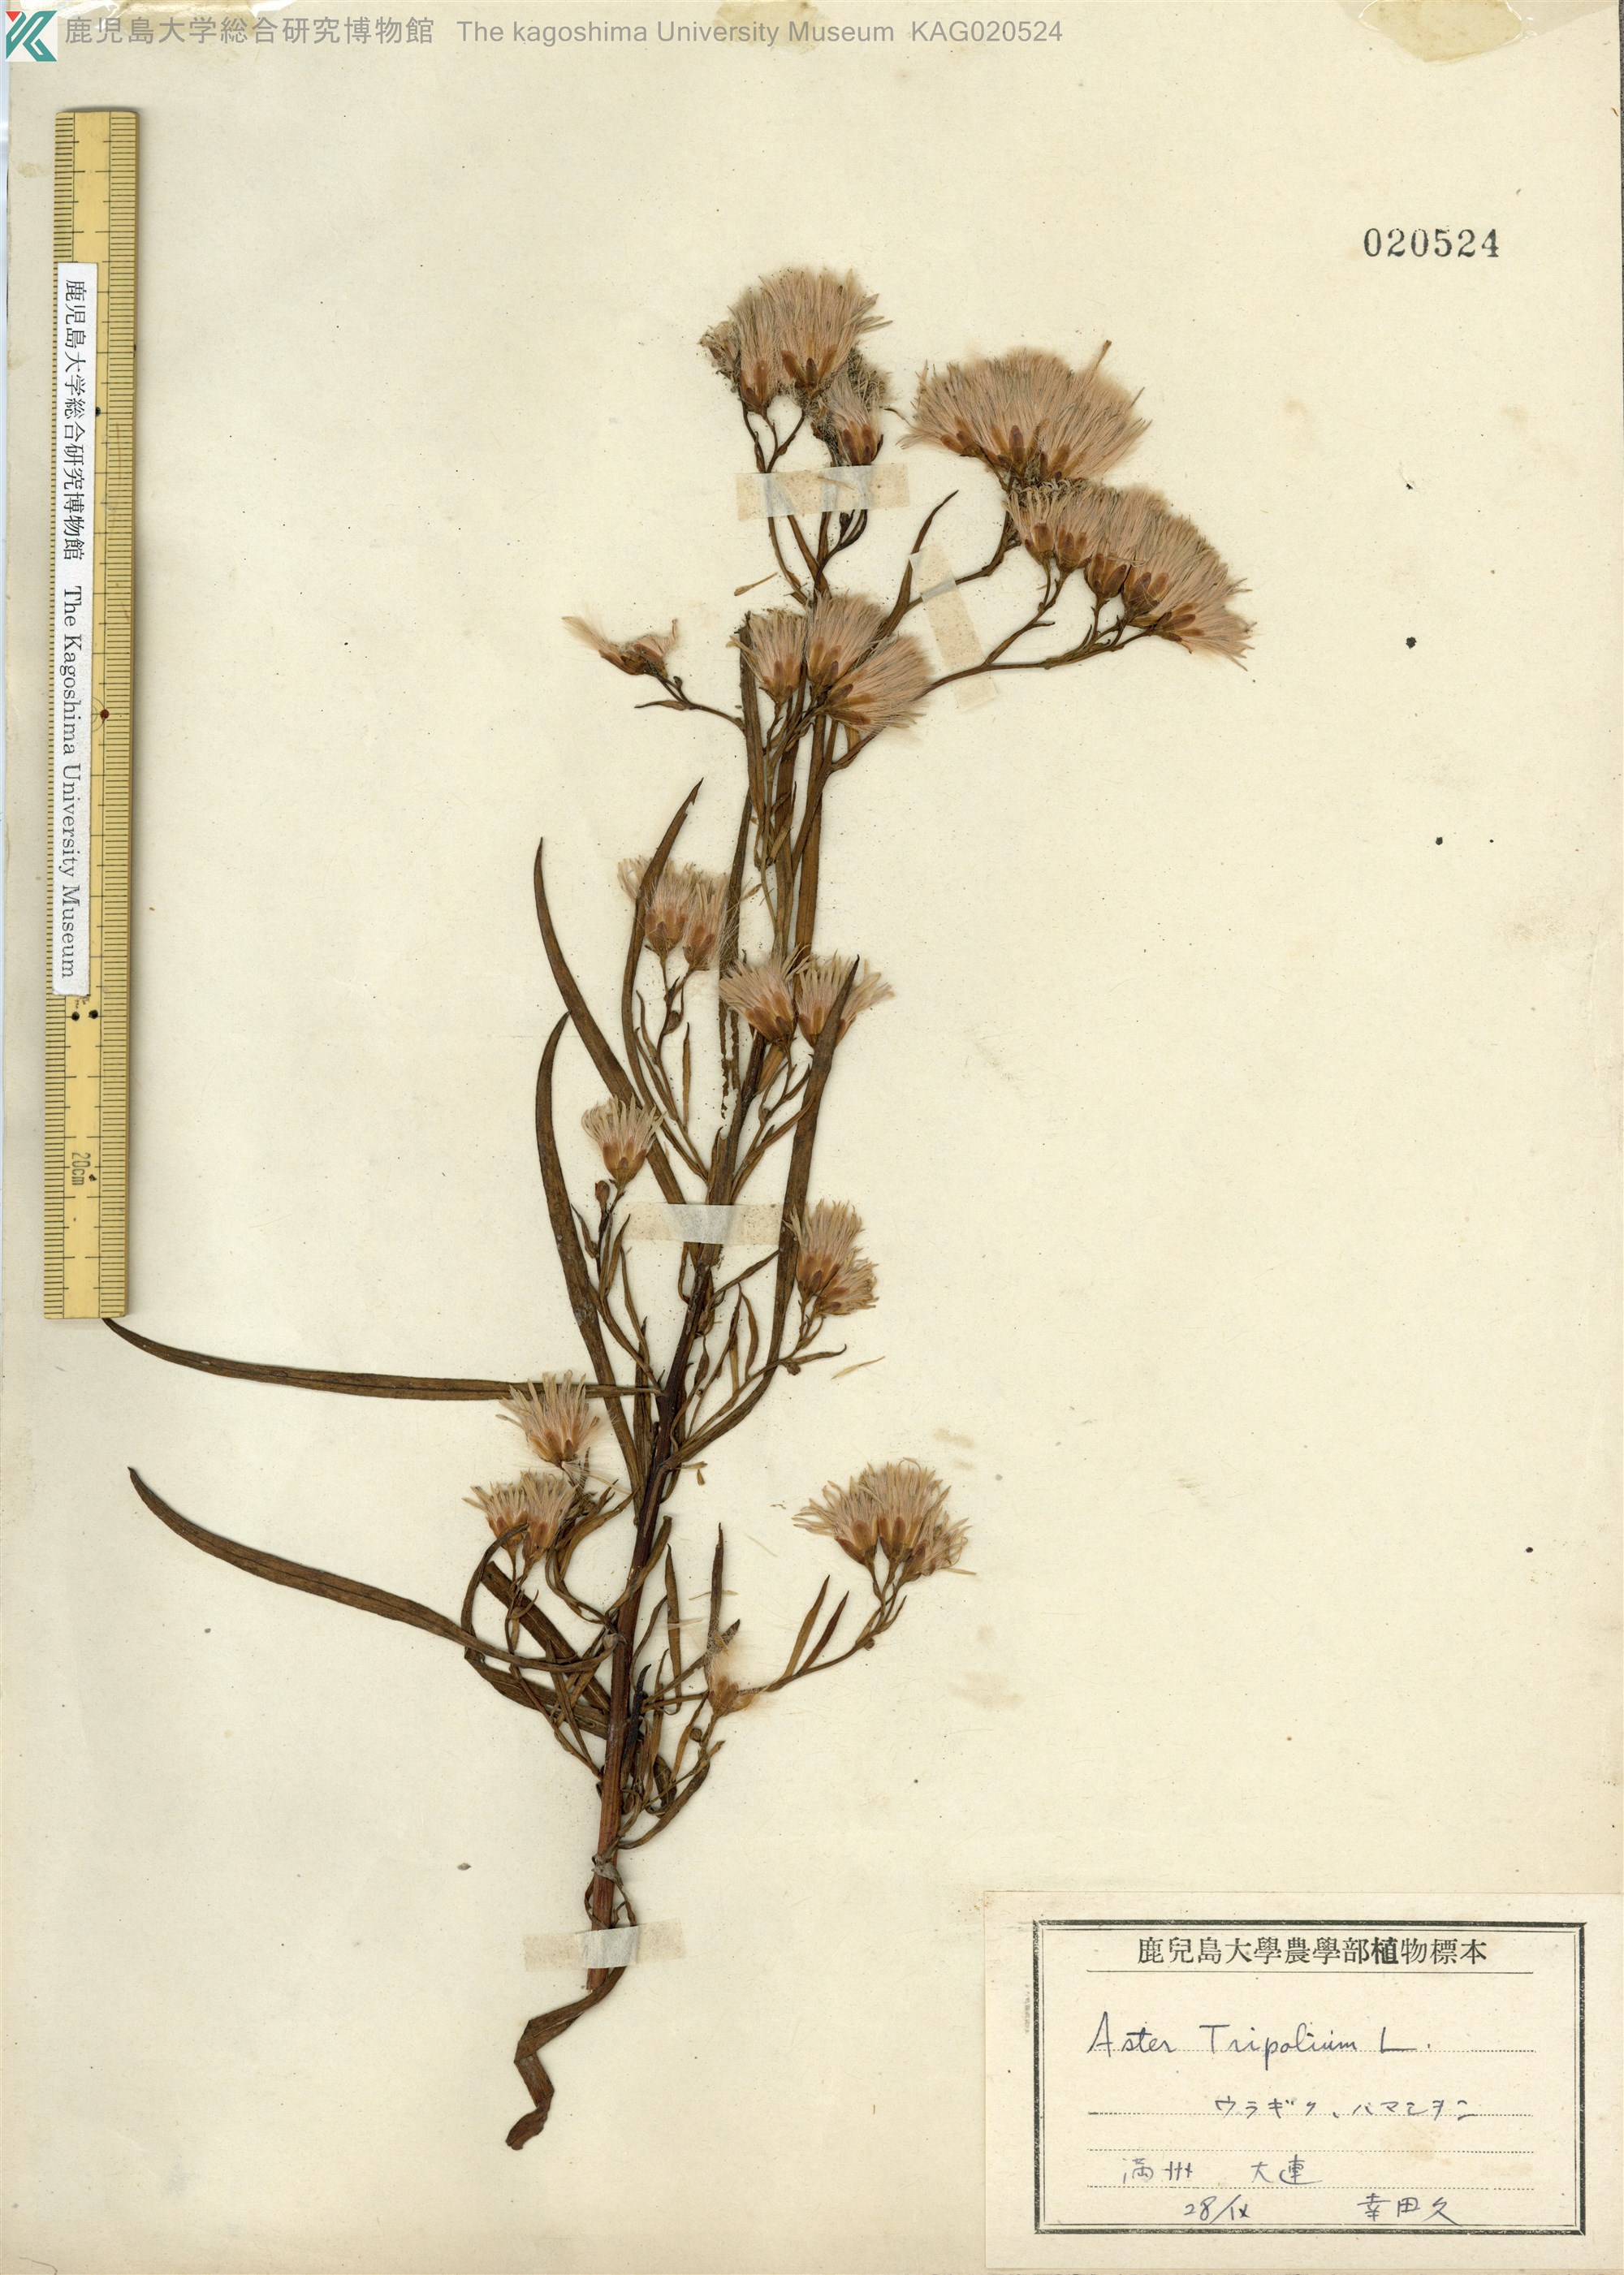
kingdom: Plantae
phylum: Tracheophyta
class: Magnoliopsida
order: Asterales
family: Asteraceae
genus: Tripolium
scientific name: Tripolium pannonicum
